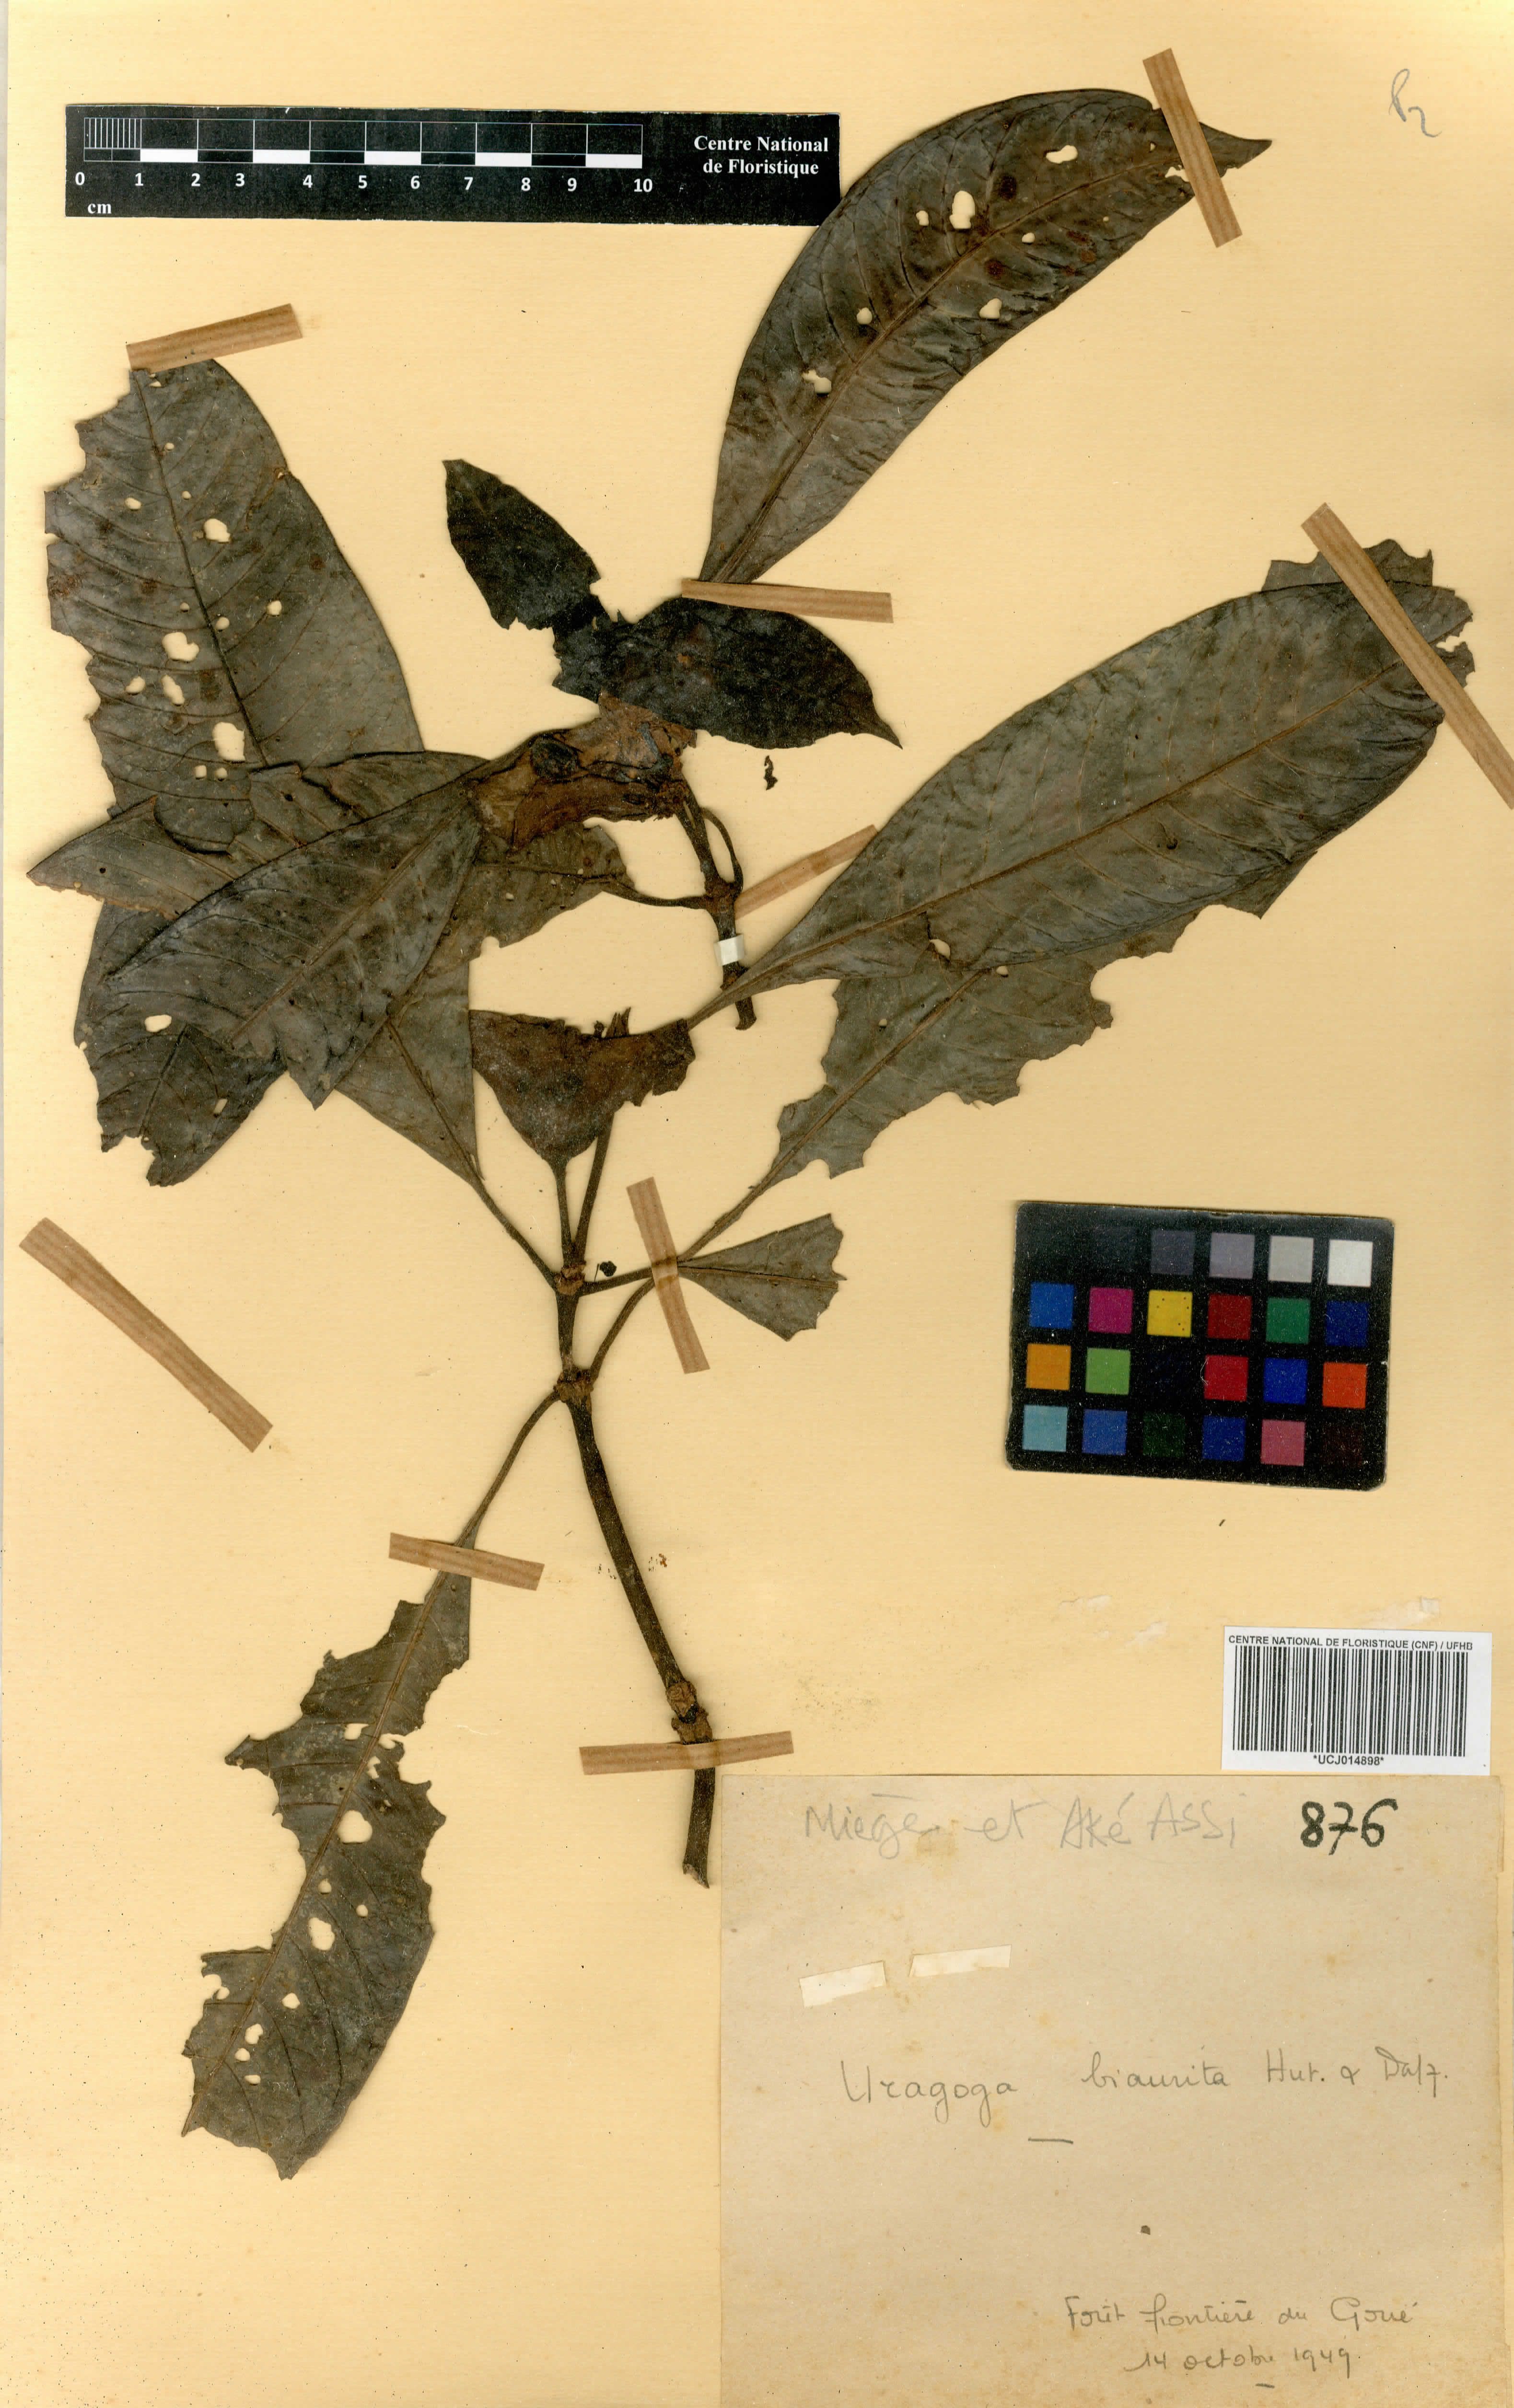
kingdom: Plantae
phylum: Tracheophyta
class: Magnoliopsida
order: Gentianales
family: Rubiaceae
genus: Psychotria
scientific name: Psychotria biaurita
